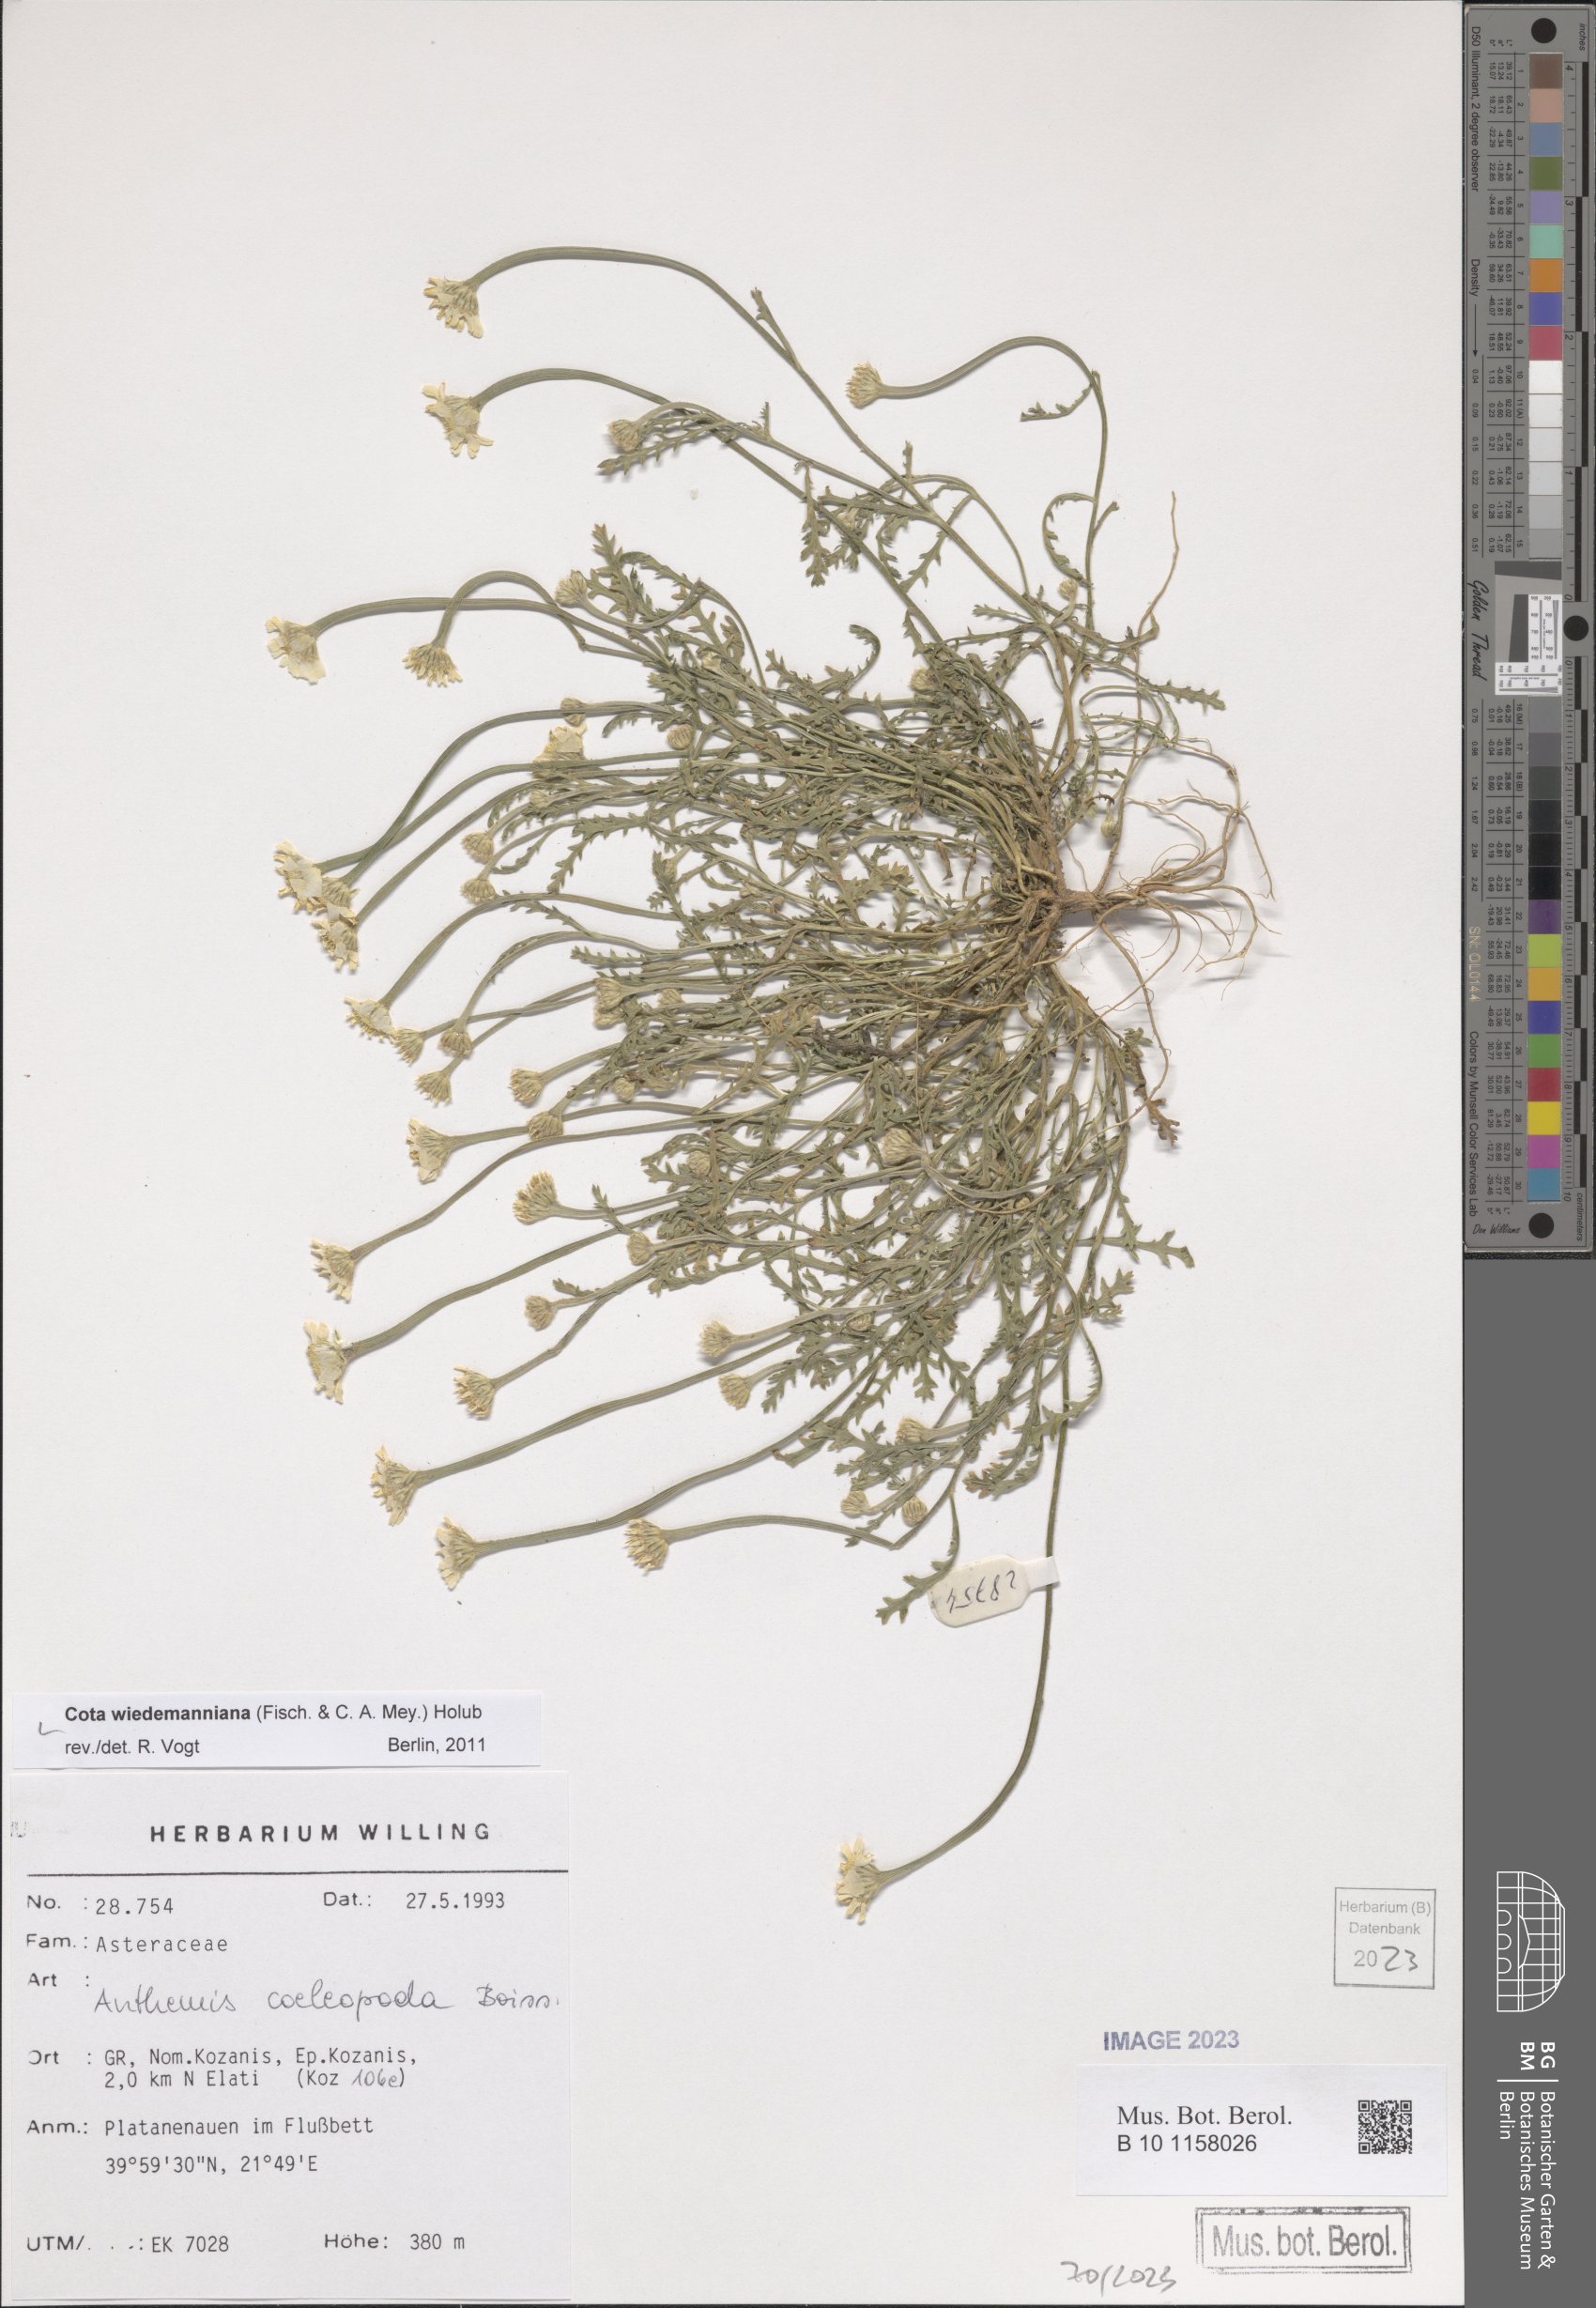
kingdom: Plantae
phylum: Tracheophyta
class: Magnoliopsida
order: Asterales
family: Asteraceae
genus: Cota
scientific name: Cota wiedemanniana
